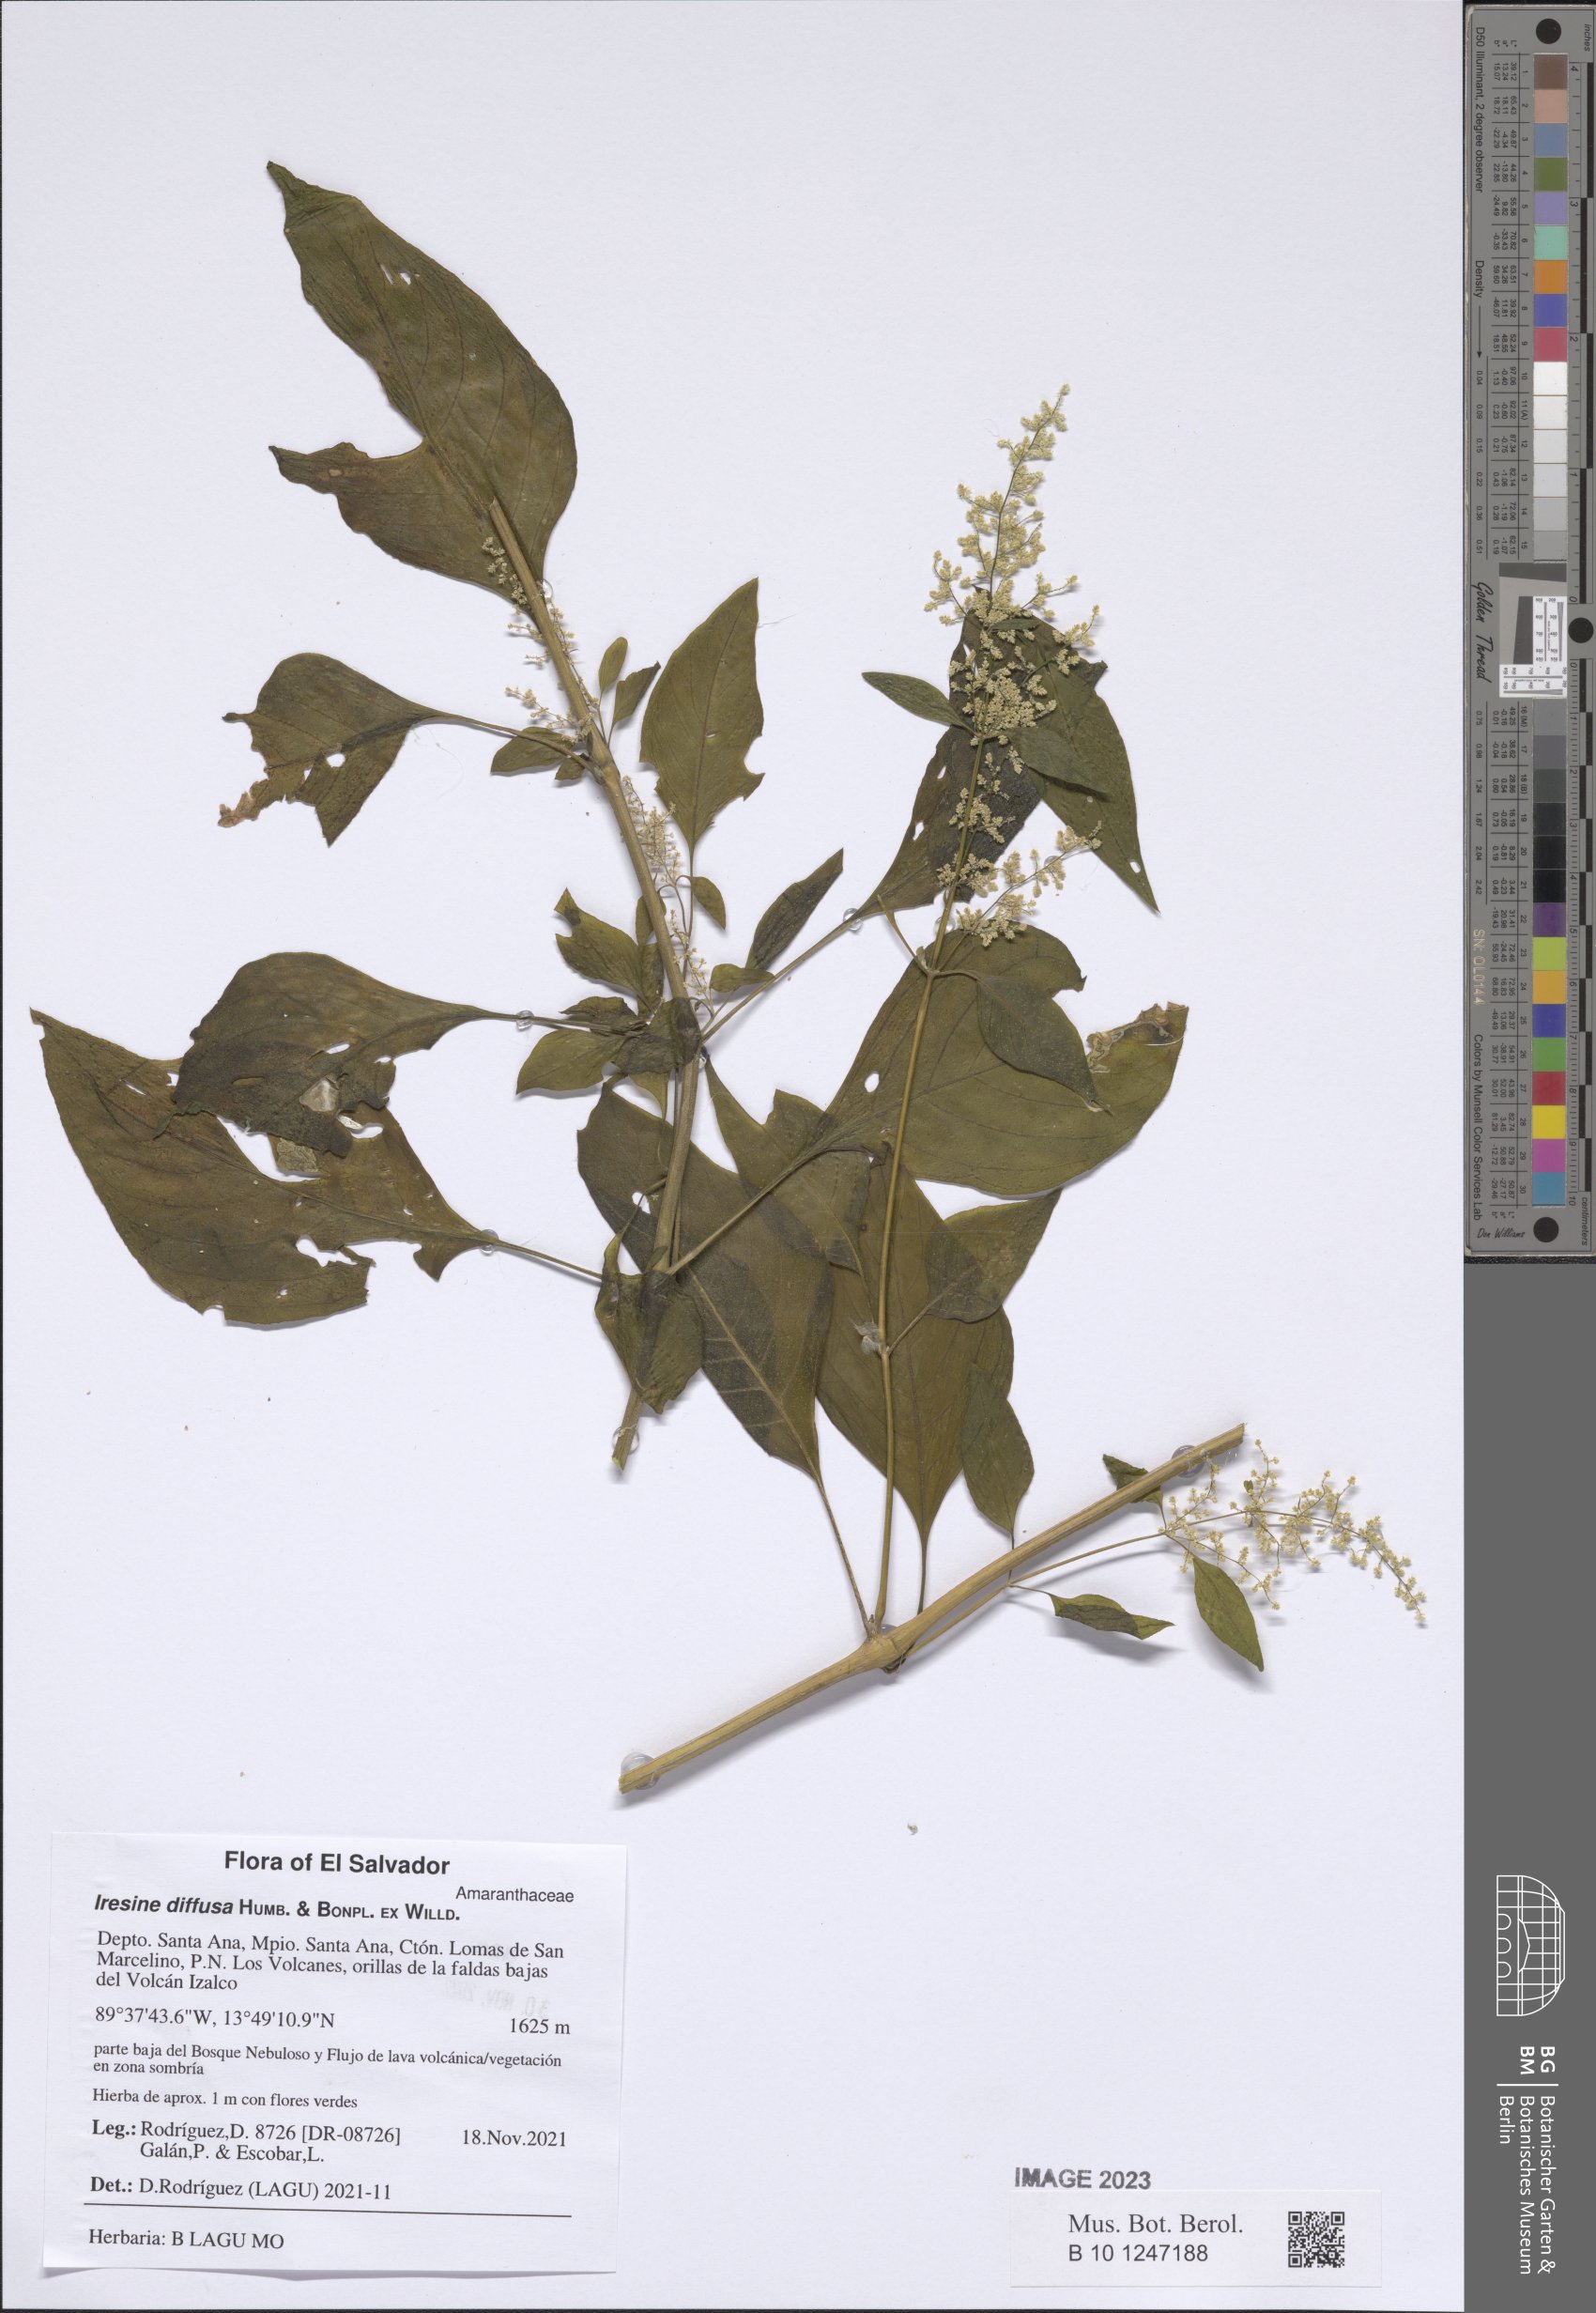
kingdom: Plantae
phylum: Tracheophyta
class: Magnoliopsida
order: Caryophyllales
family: Amaranthaceae
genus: Iresine
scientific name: Iresine diffusa
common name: Juba's-bush
